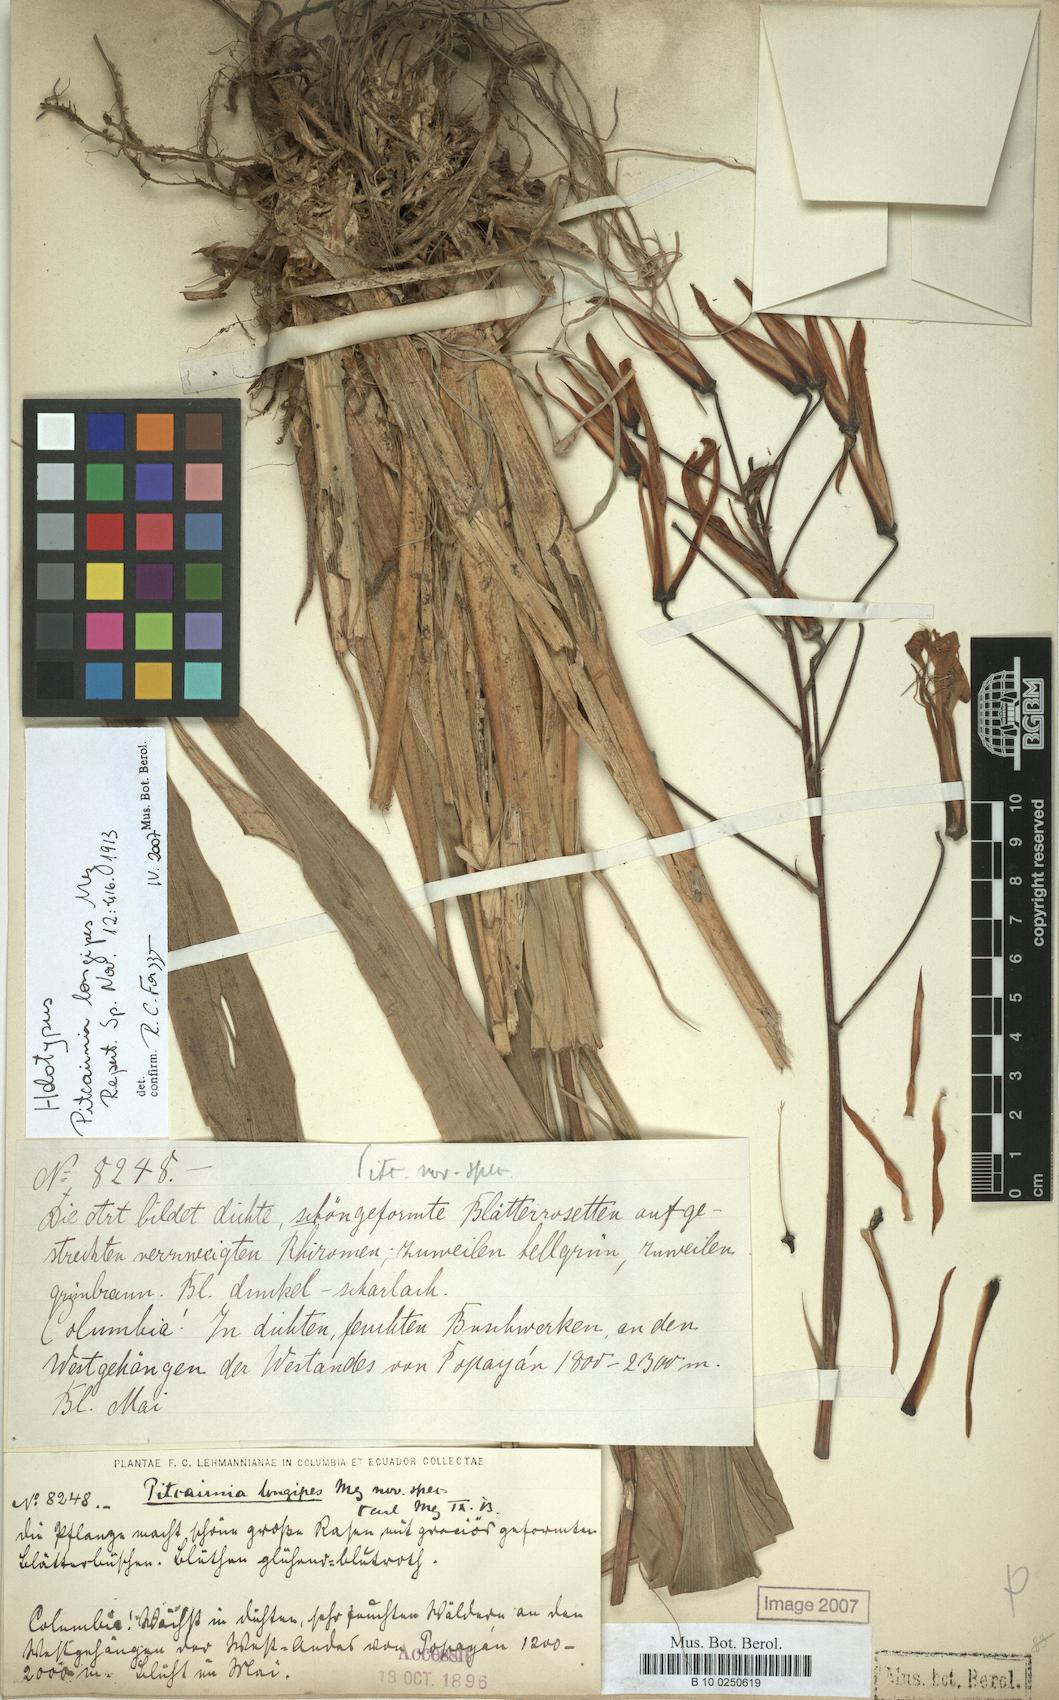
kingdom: Plantae
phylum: Tracheophyta
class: Liliopsida
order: Poales
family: Bromeliaceae
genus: Pitcairnia
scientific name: Pitcairnia longipes
